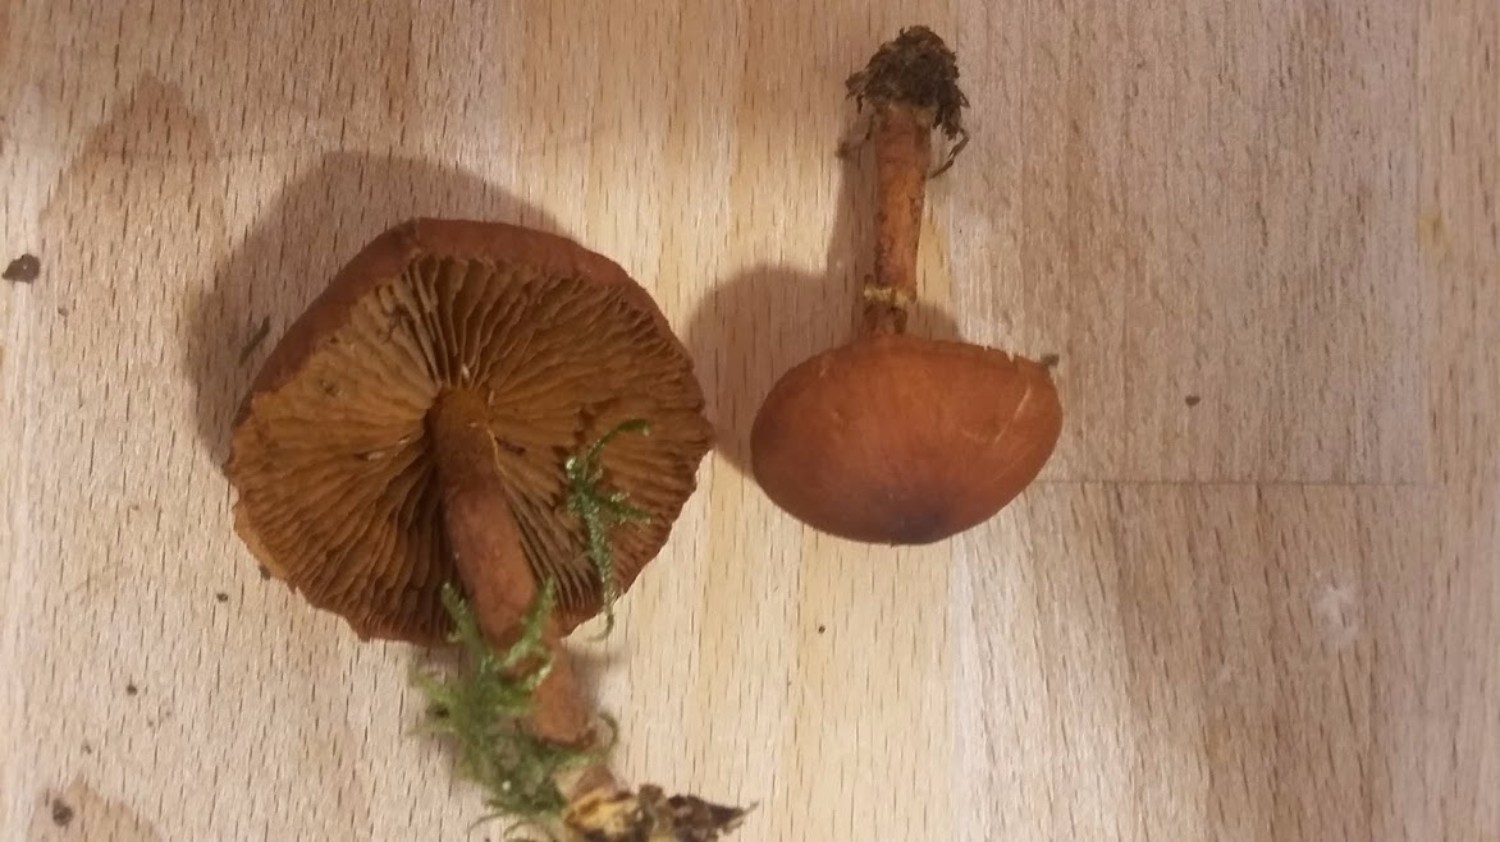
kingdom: Fungi
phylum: Basidiomycota
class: Agaricomycetes
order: Agaricales
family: Cortinariaceae
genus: Cortinarius
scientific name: Cortinarius
